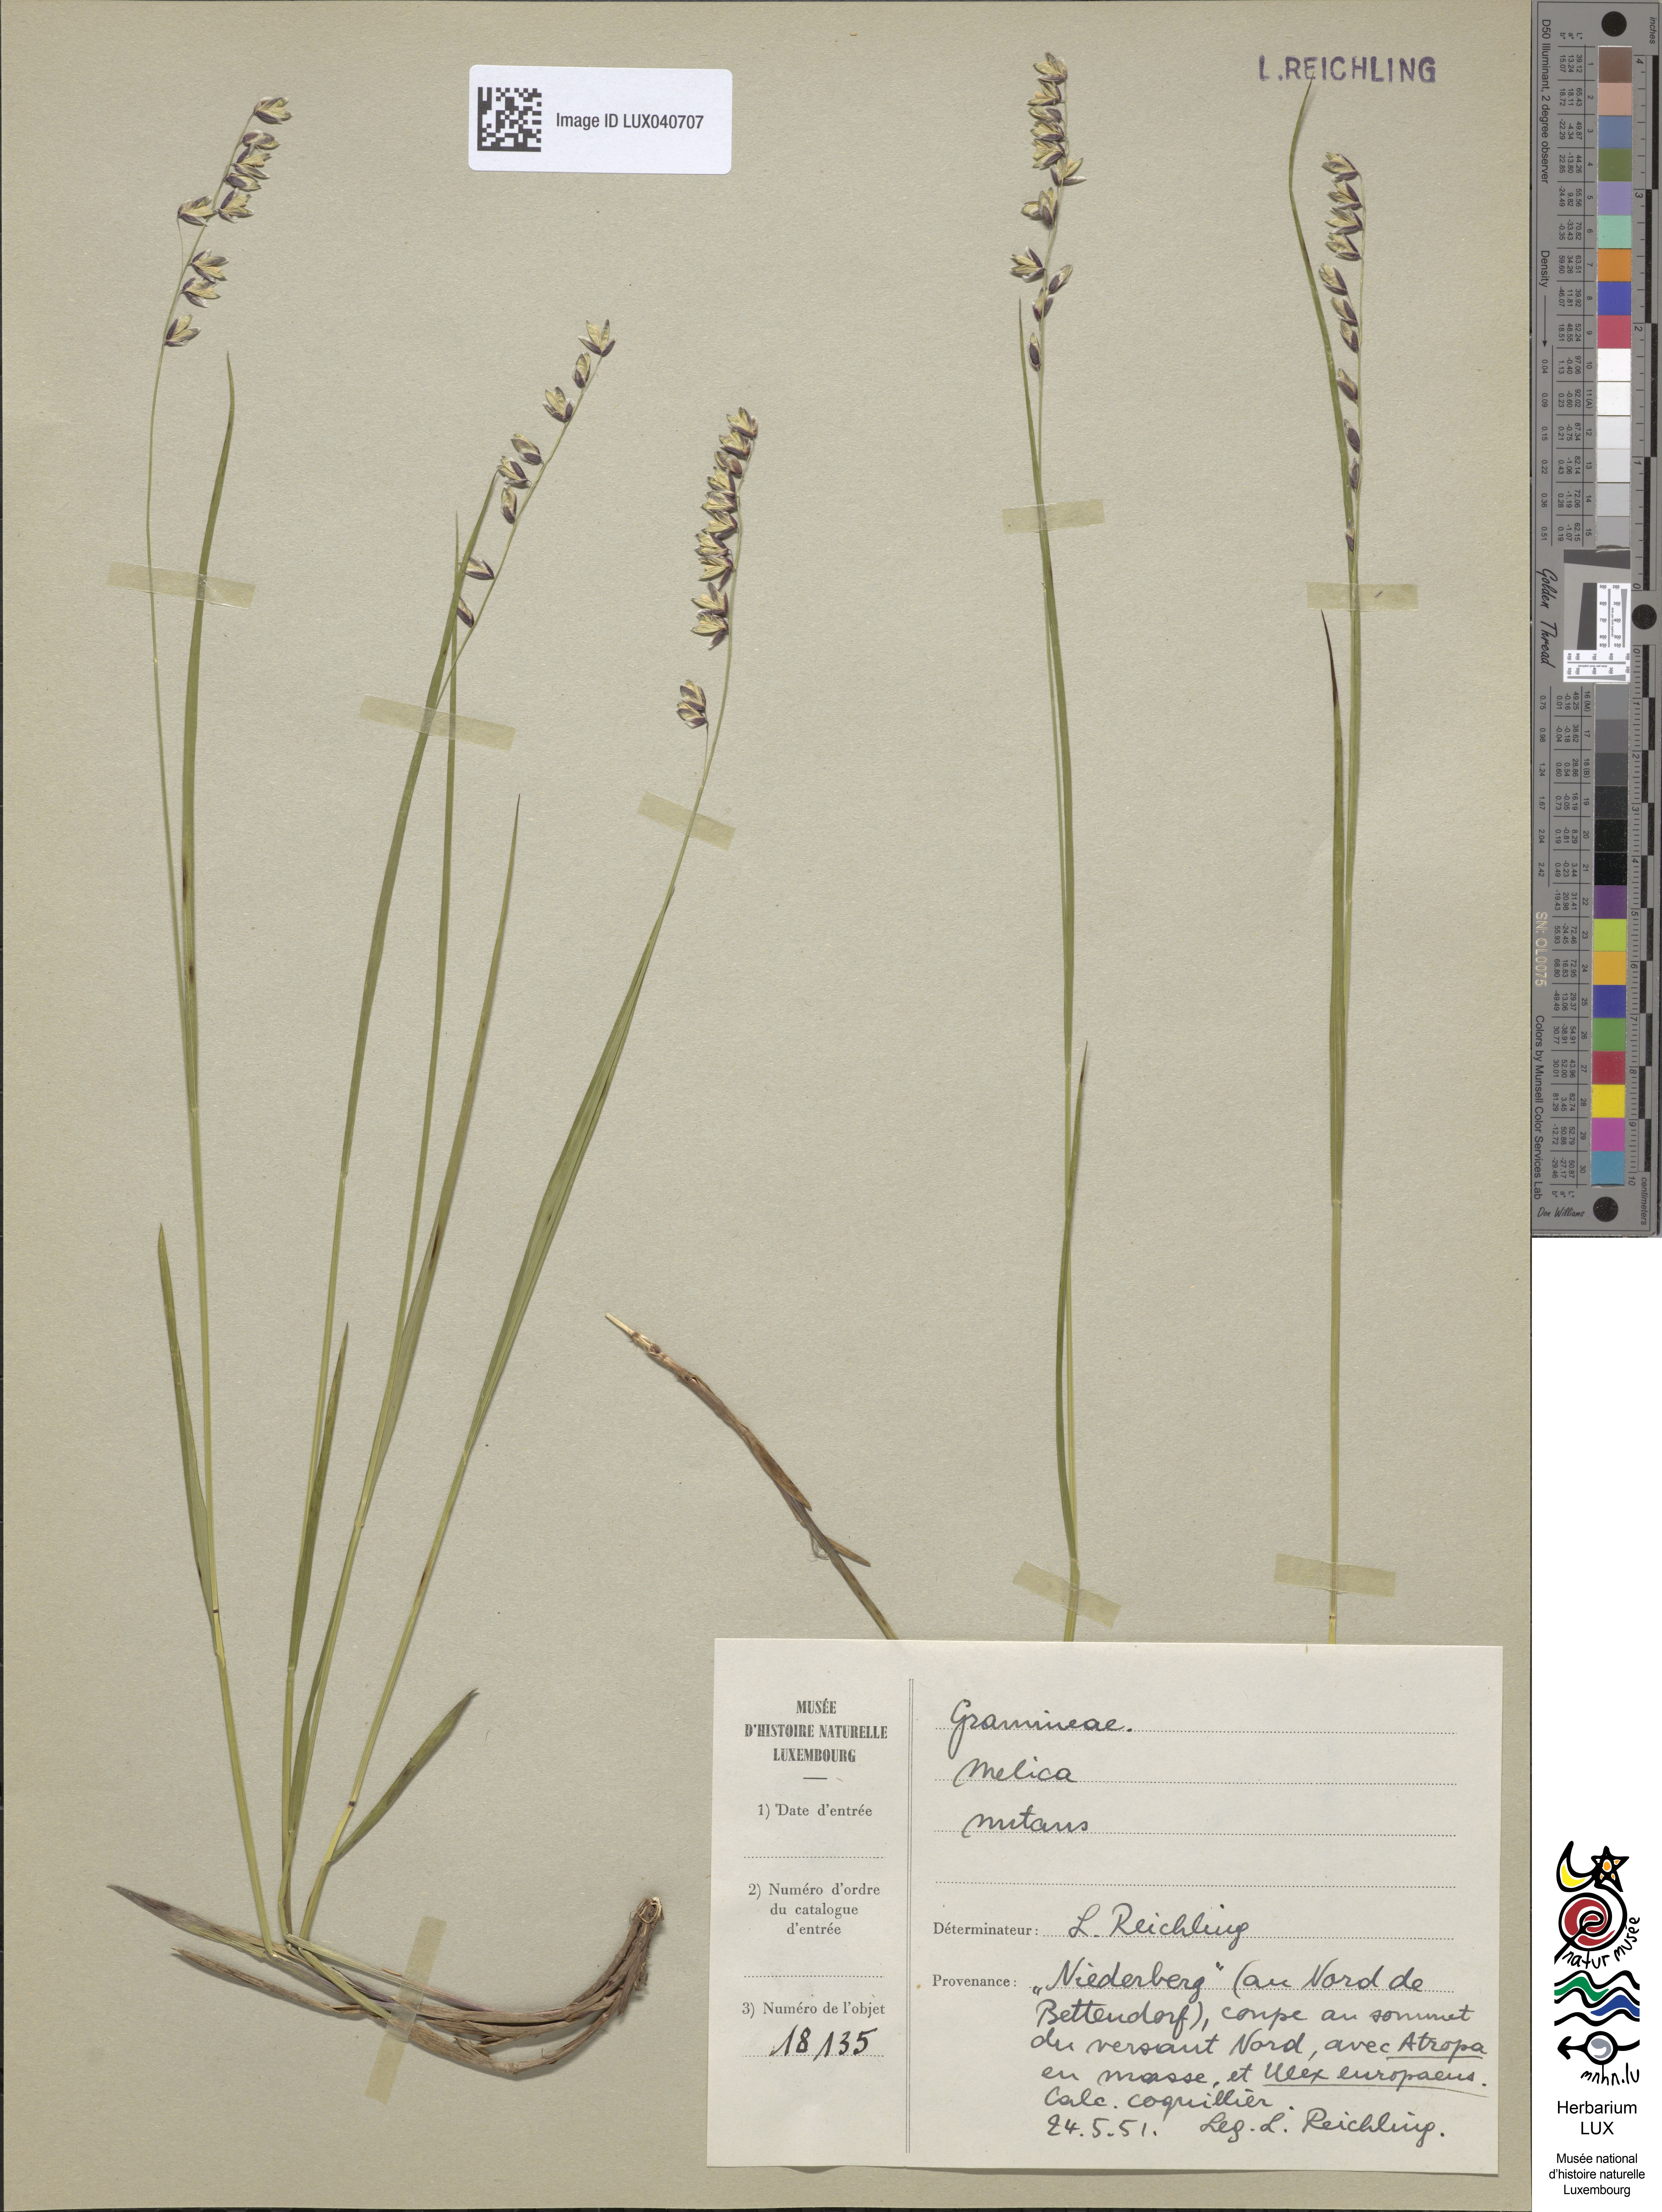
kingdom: Plantae
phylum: Tracheophyta
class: Liliopsida
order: Poales
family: Poaceae
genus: Melica
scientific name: Melica nutans
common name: Mountain melick
